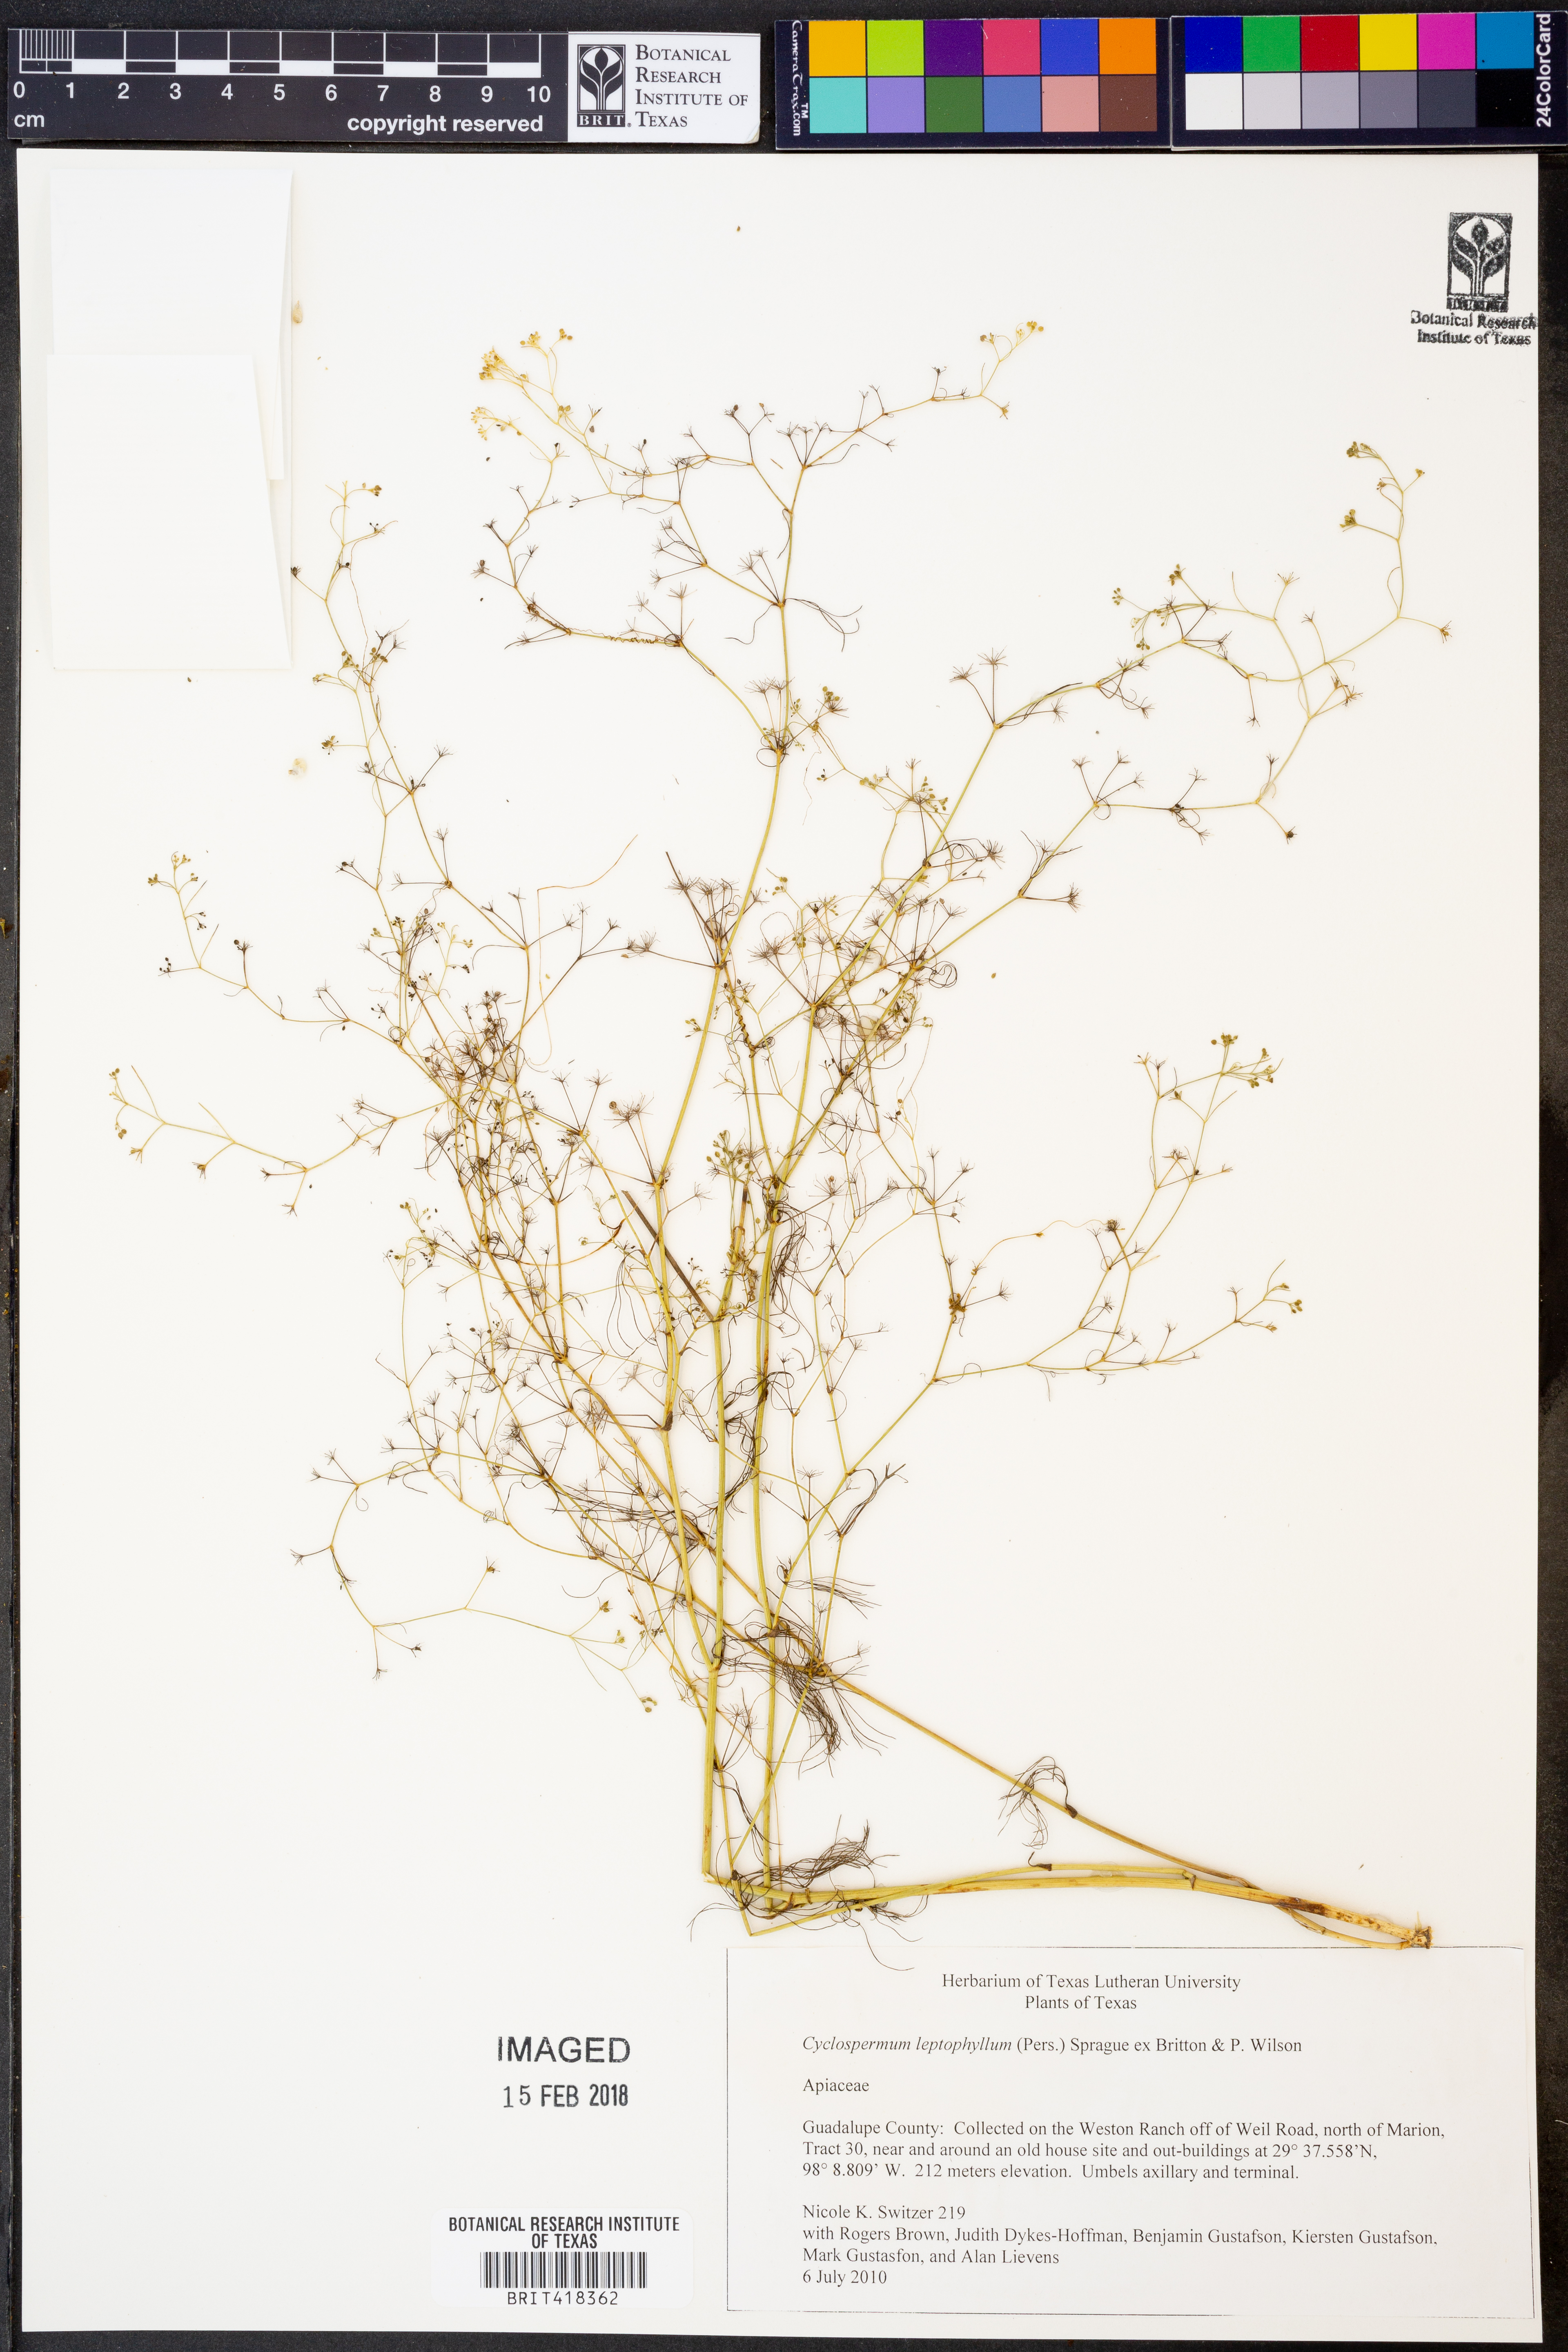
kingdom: Plantae
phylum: Tracheophyta
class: Magnoliopsida
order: Apiales
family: Apiaceae
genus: Cyclospermum
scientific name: Cyclospermum leptophyllum
